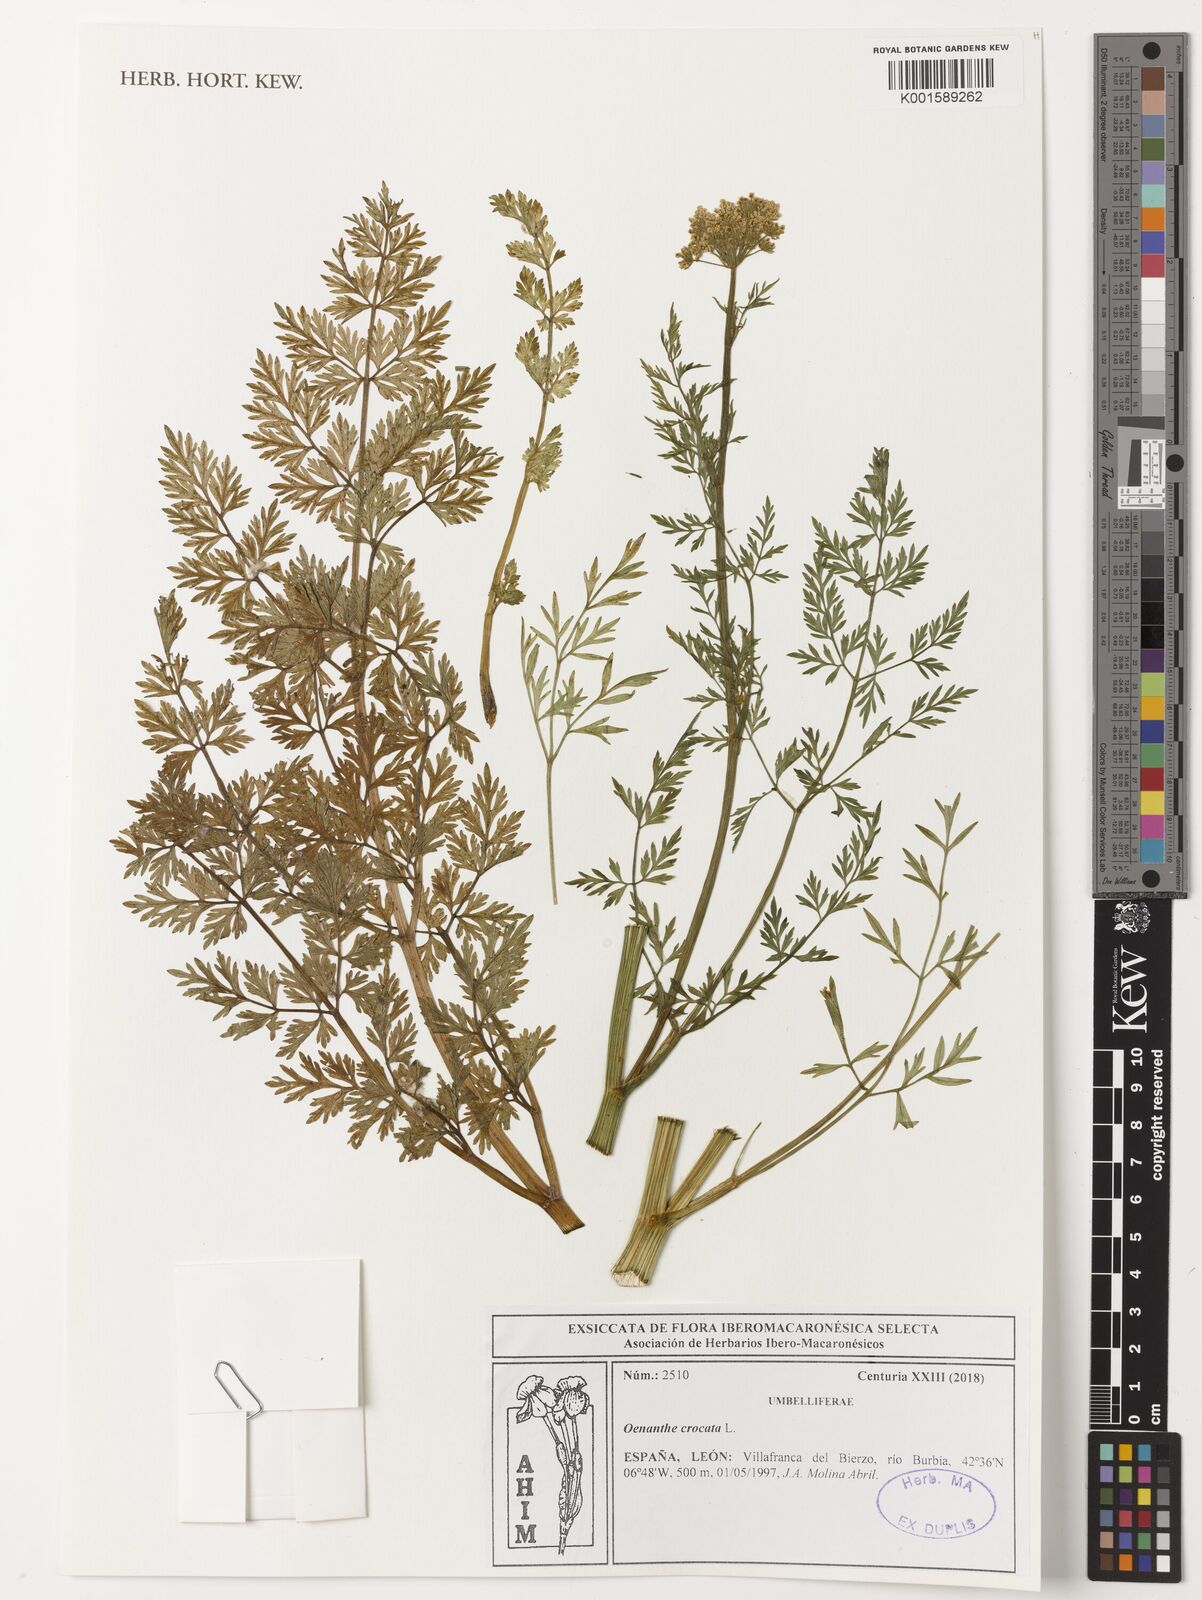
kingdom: Plantae
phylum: Tracheophyta
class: Magnoliopsida
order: Apiales
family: Apiaceae
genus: Oenanthe
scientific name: Oenanthe crocata
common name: Hemlock water-dropwort
